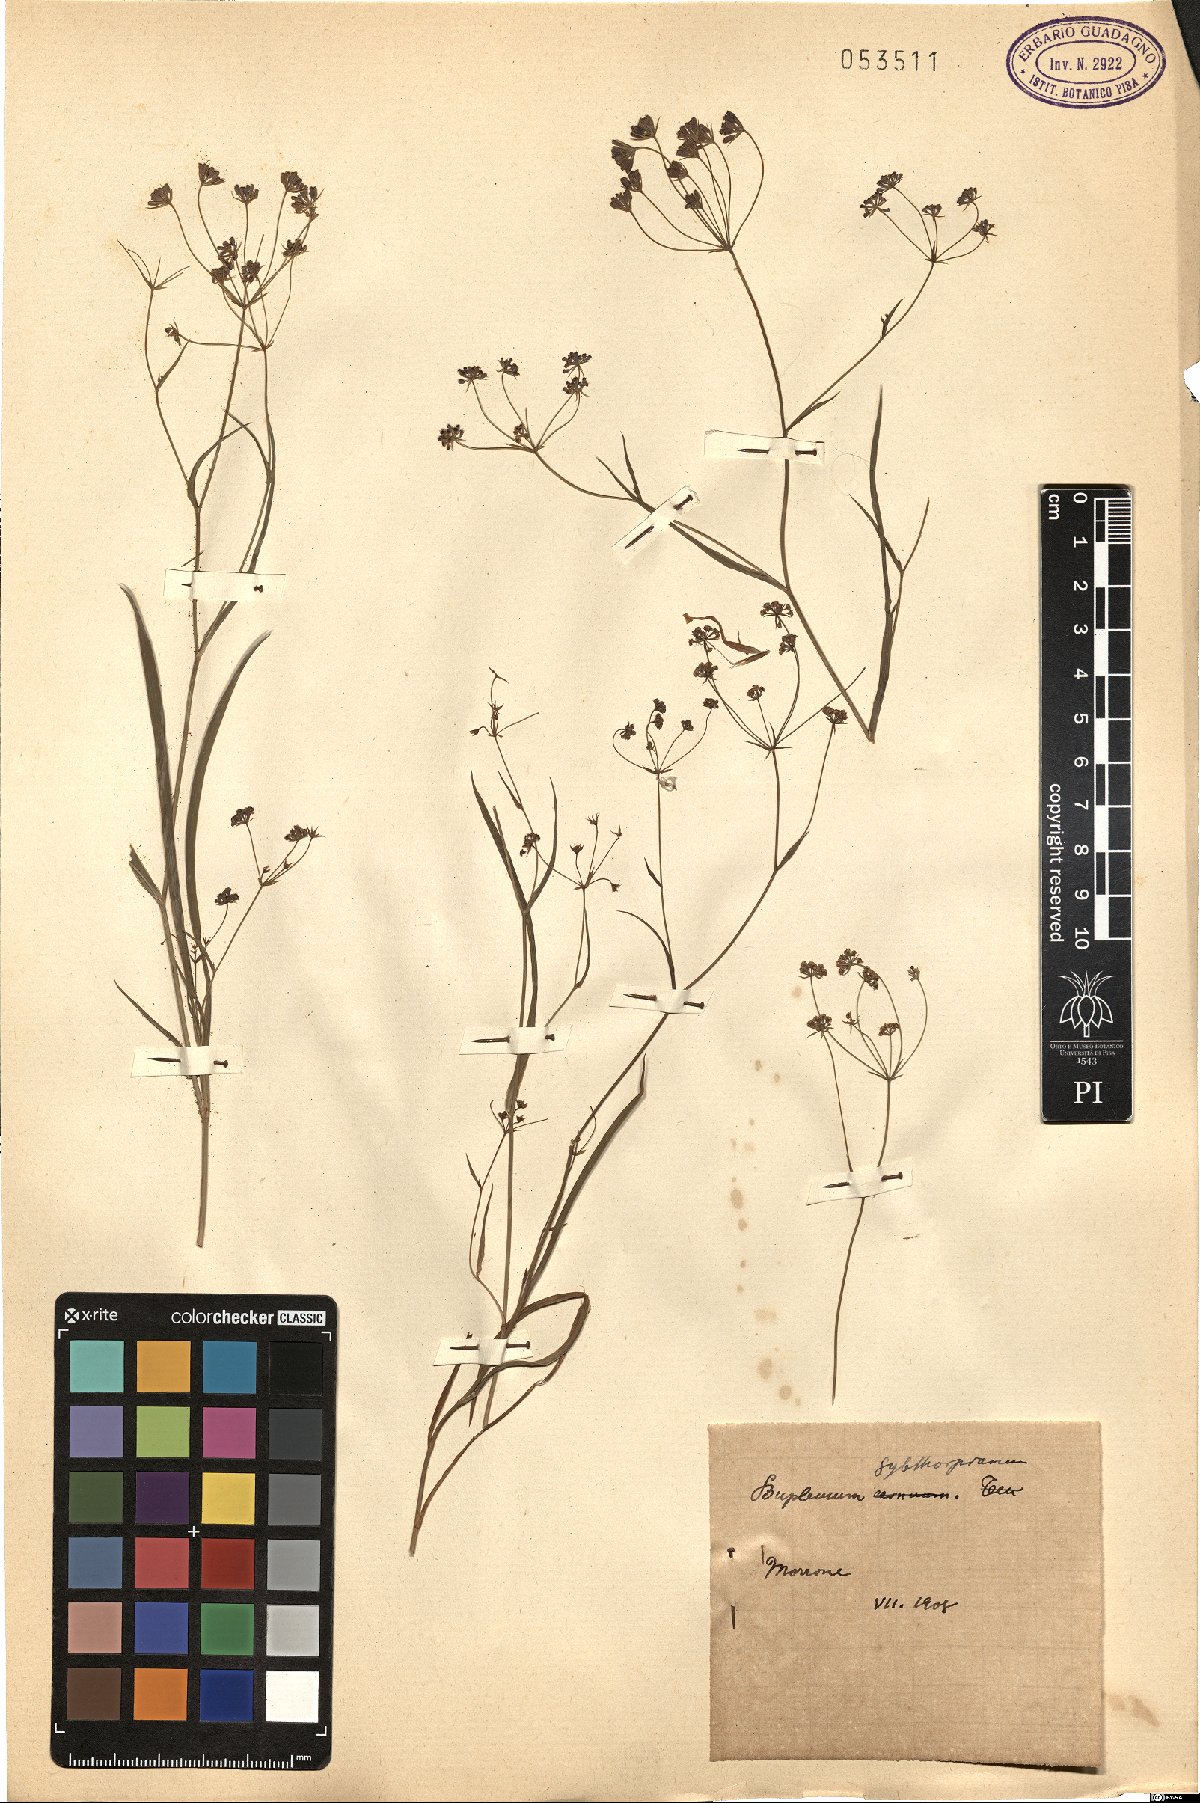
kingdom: Plantae
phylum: Tracheophyta
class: Magnoliopsida
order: Apiales
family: Apiaceae
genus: Bupleurum
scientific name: Bupleurum falcatum
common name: Sickle-leaved hare's-ear
